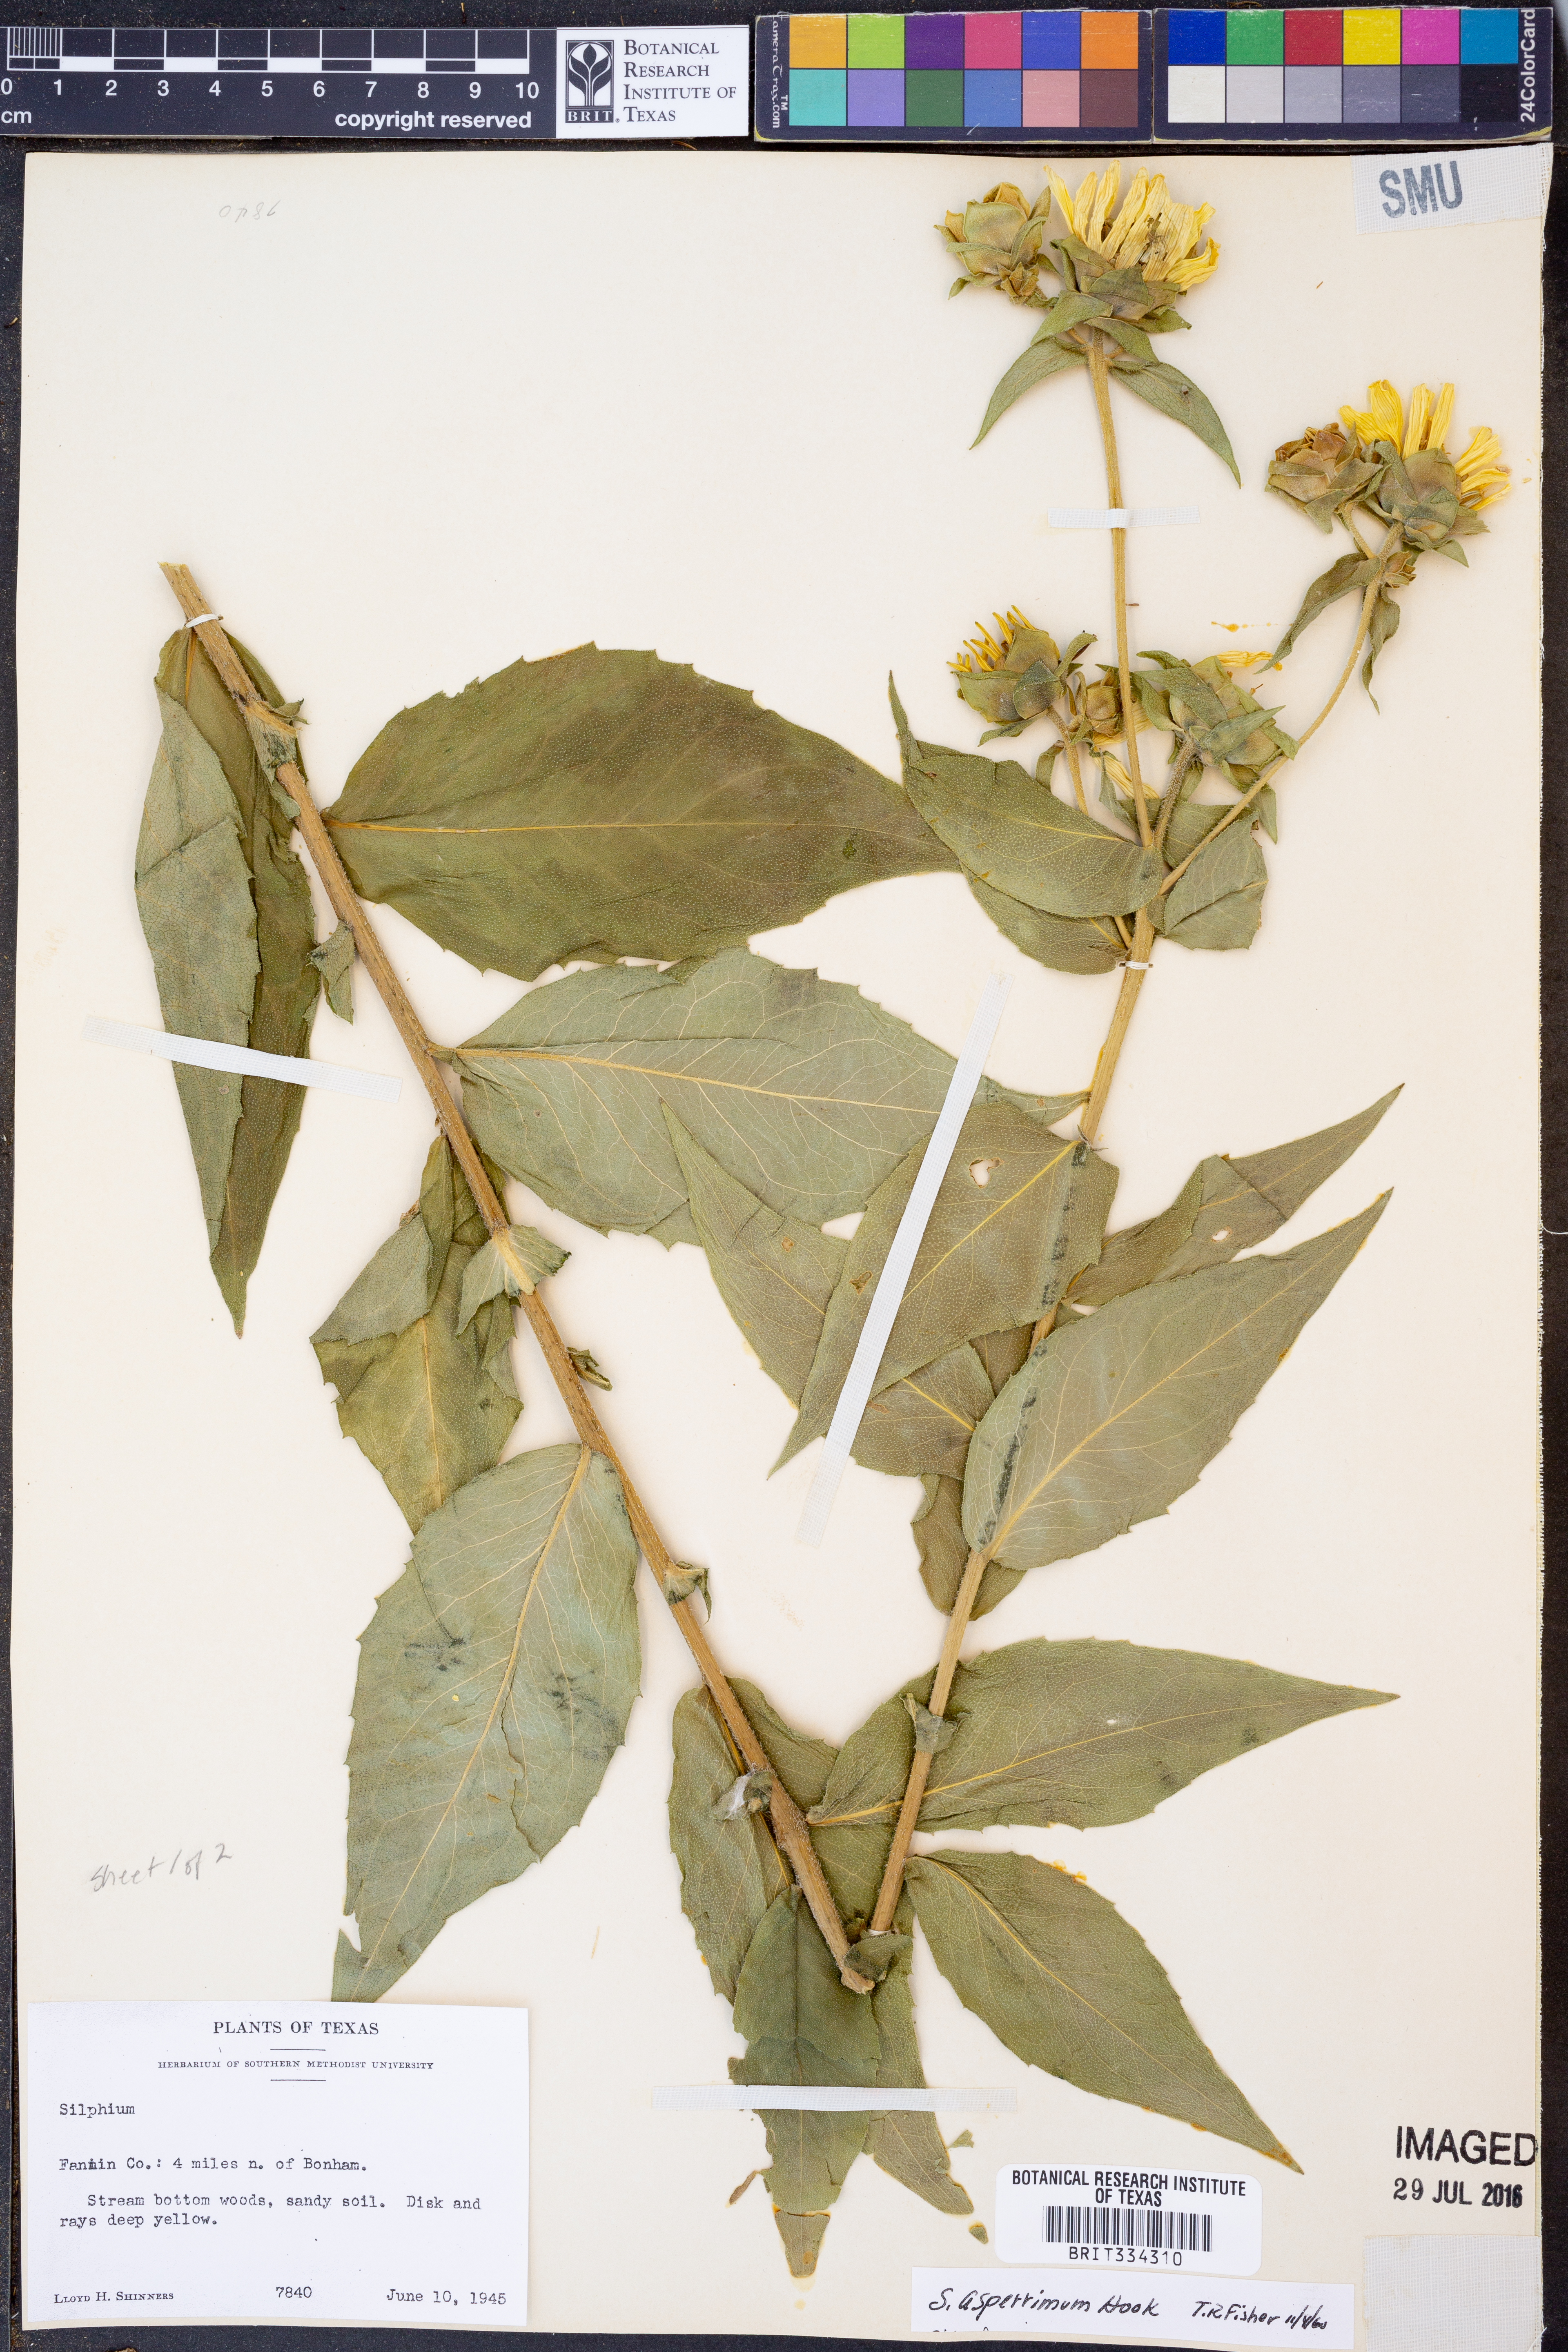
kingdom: Plantae
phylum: Tracheophyta
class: Magnoliopsida
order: Asterales
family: Asteraceae
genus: Silphium
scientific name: Silphium asperrimum
